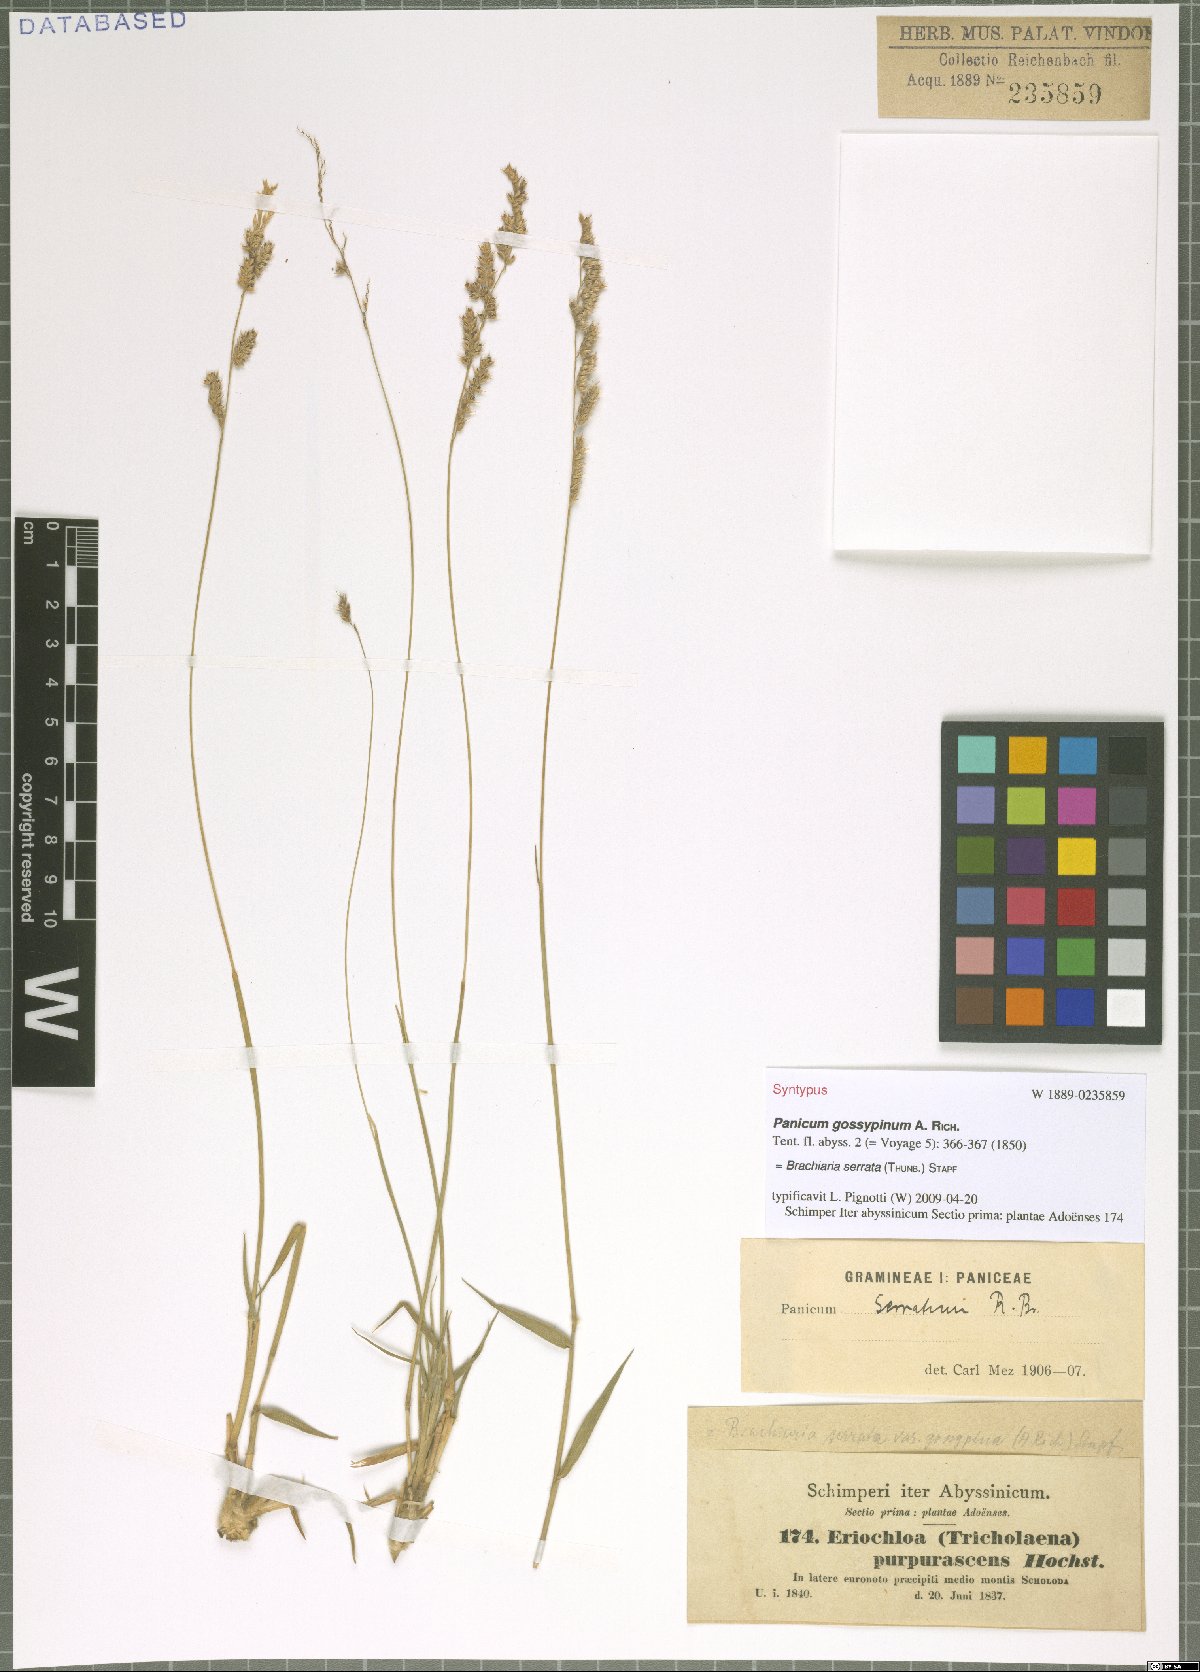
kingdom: Plantae
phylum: Tracheophyta
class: Liliopsida
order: Poales
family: Poaceae
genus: Urochloa
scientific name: Urochloa serrata
